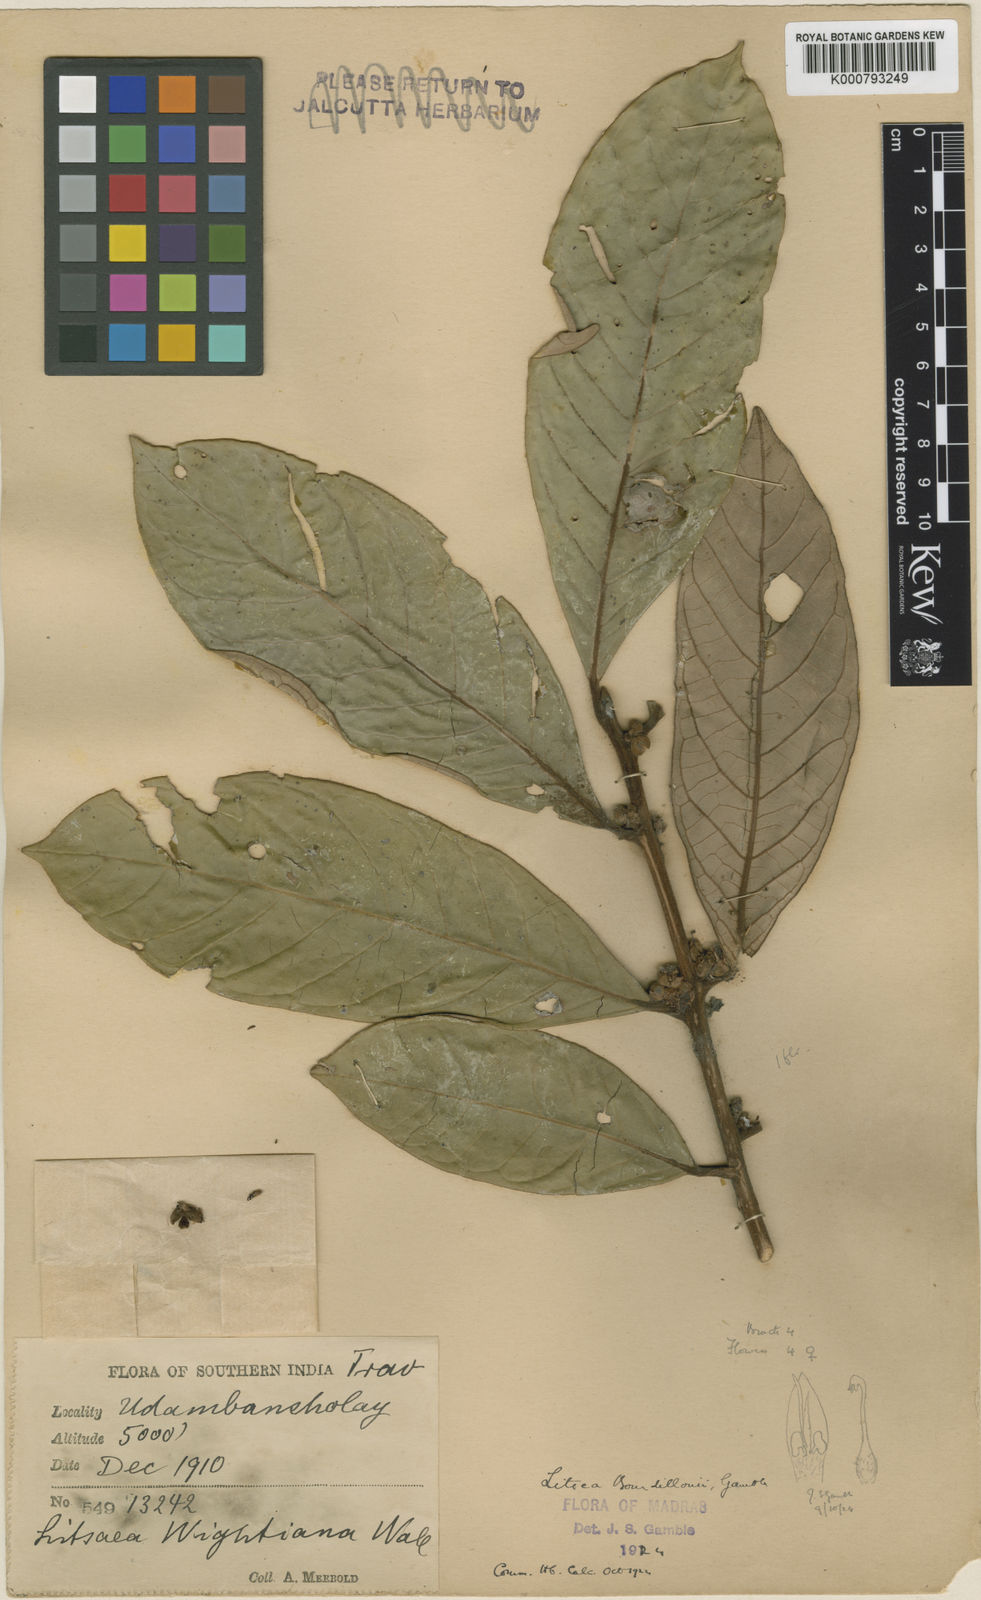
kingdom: Plantae
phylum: Tracheophyta
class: Magnoliopsida
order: Laurales
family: Lauraceae
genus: Litsea
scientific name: Litsea bourdillonii
